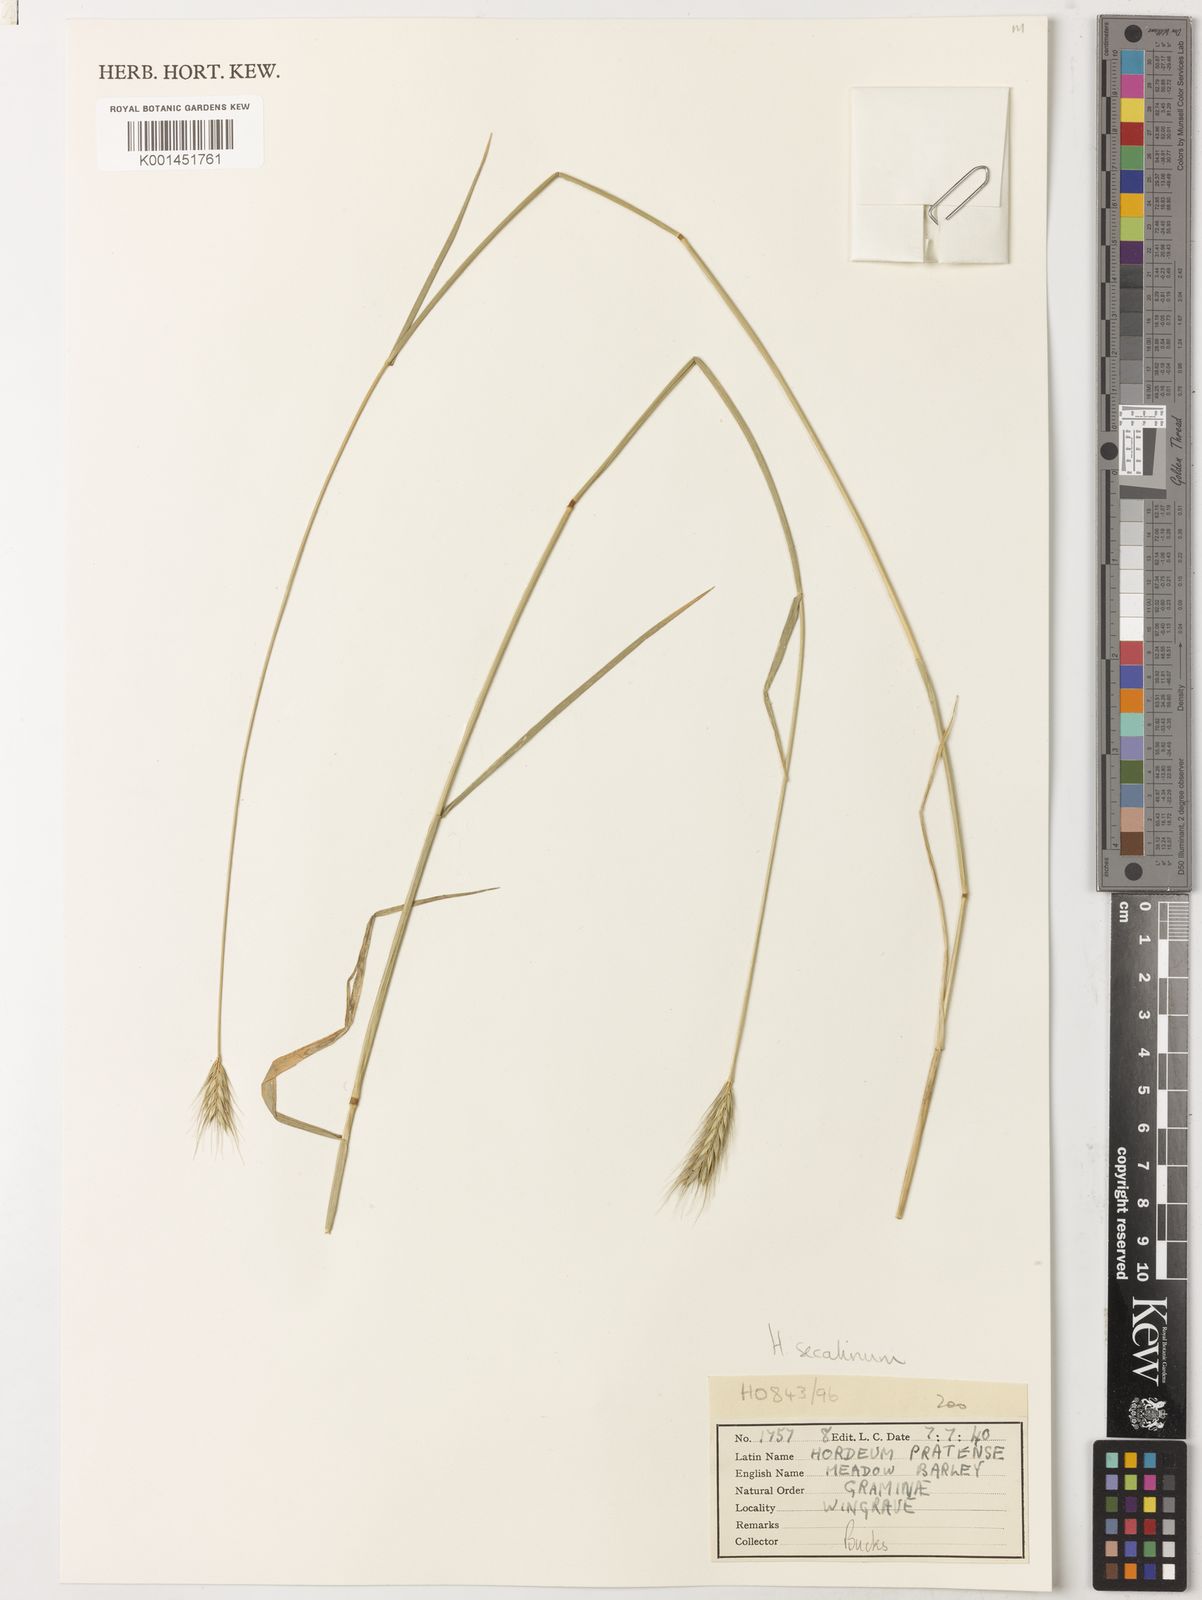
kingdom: Plantae
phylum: Tracheophyta
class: Liliopsida
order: Poales
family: Poaceae
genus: Hordeum
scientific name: Hordeum
